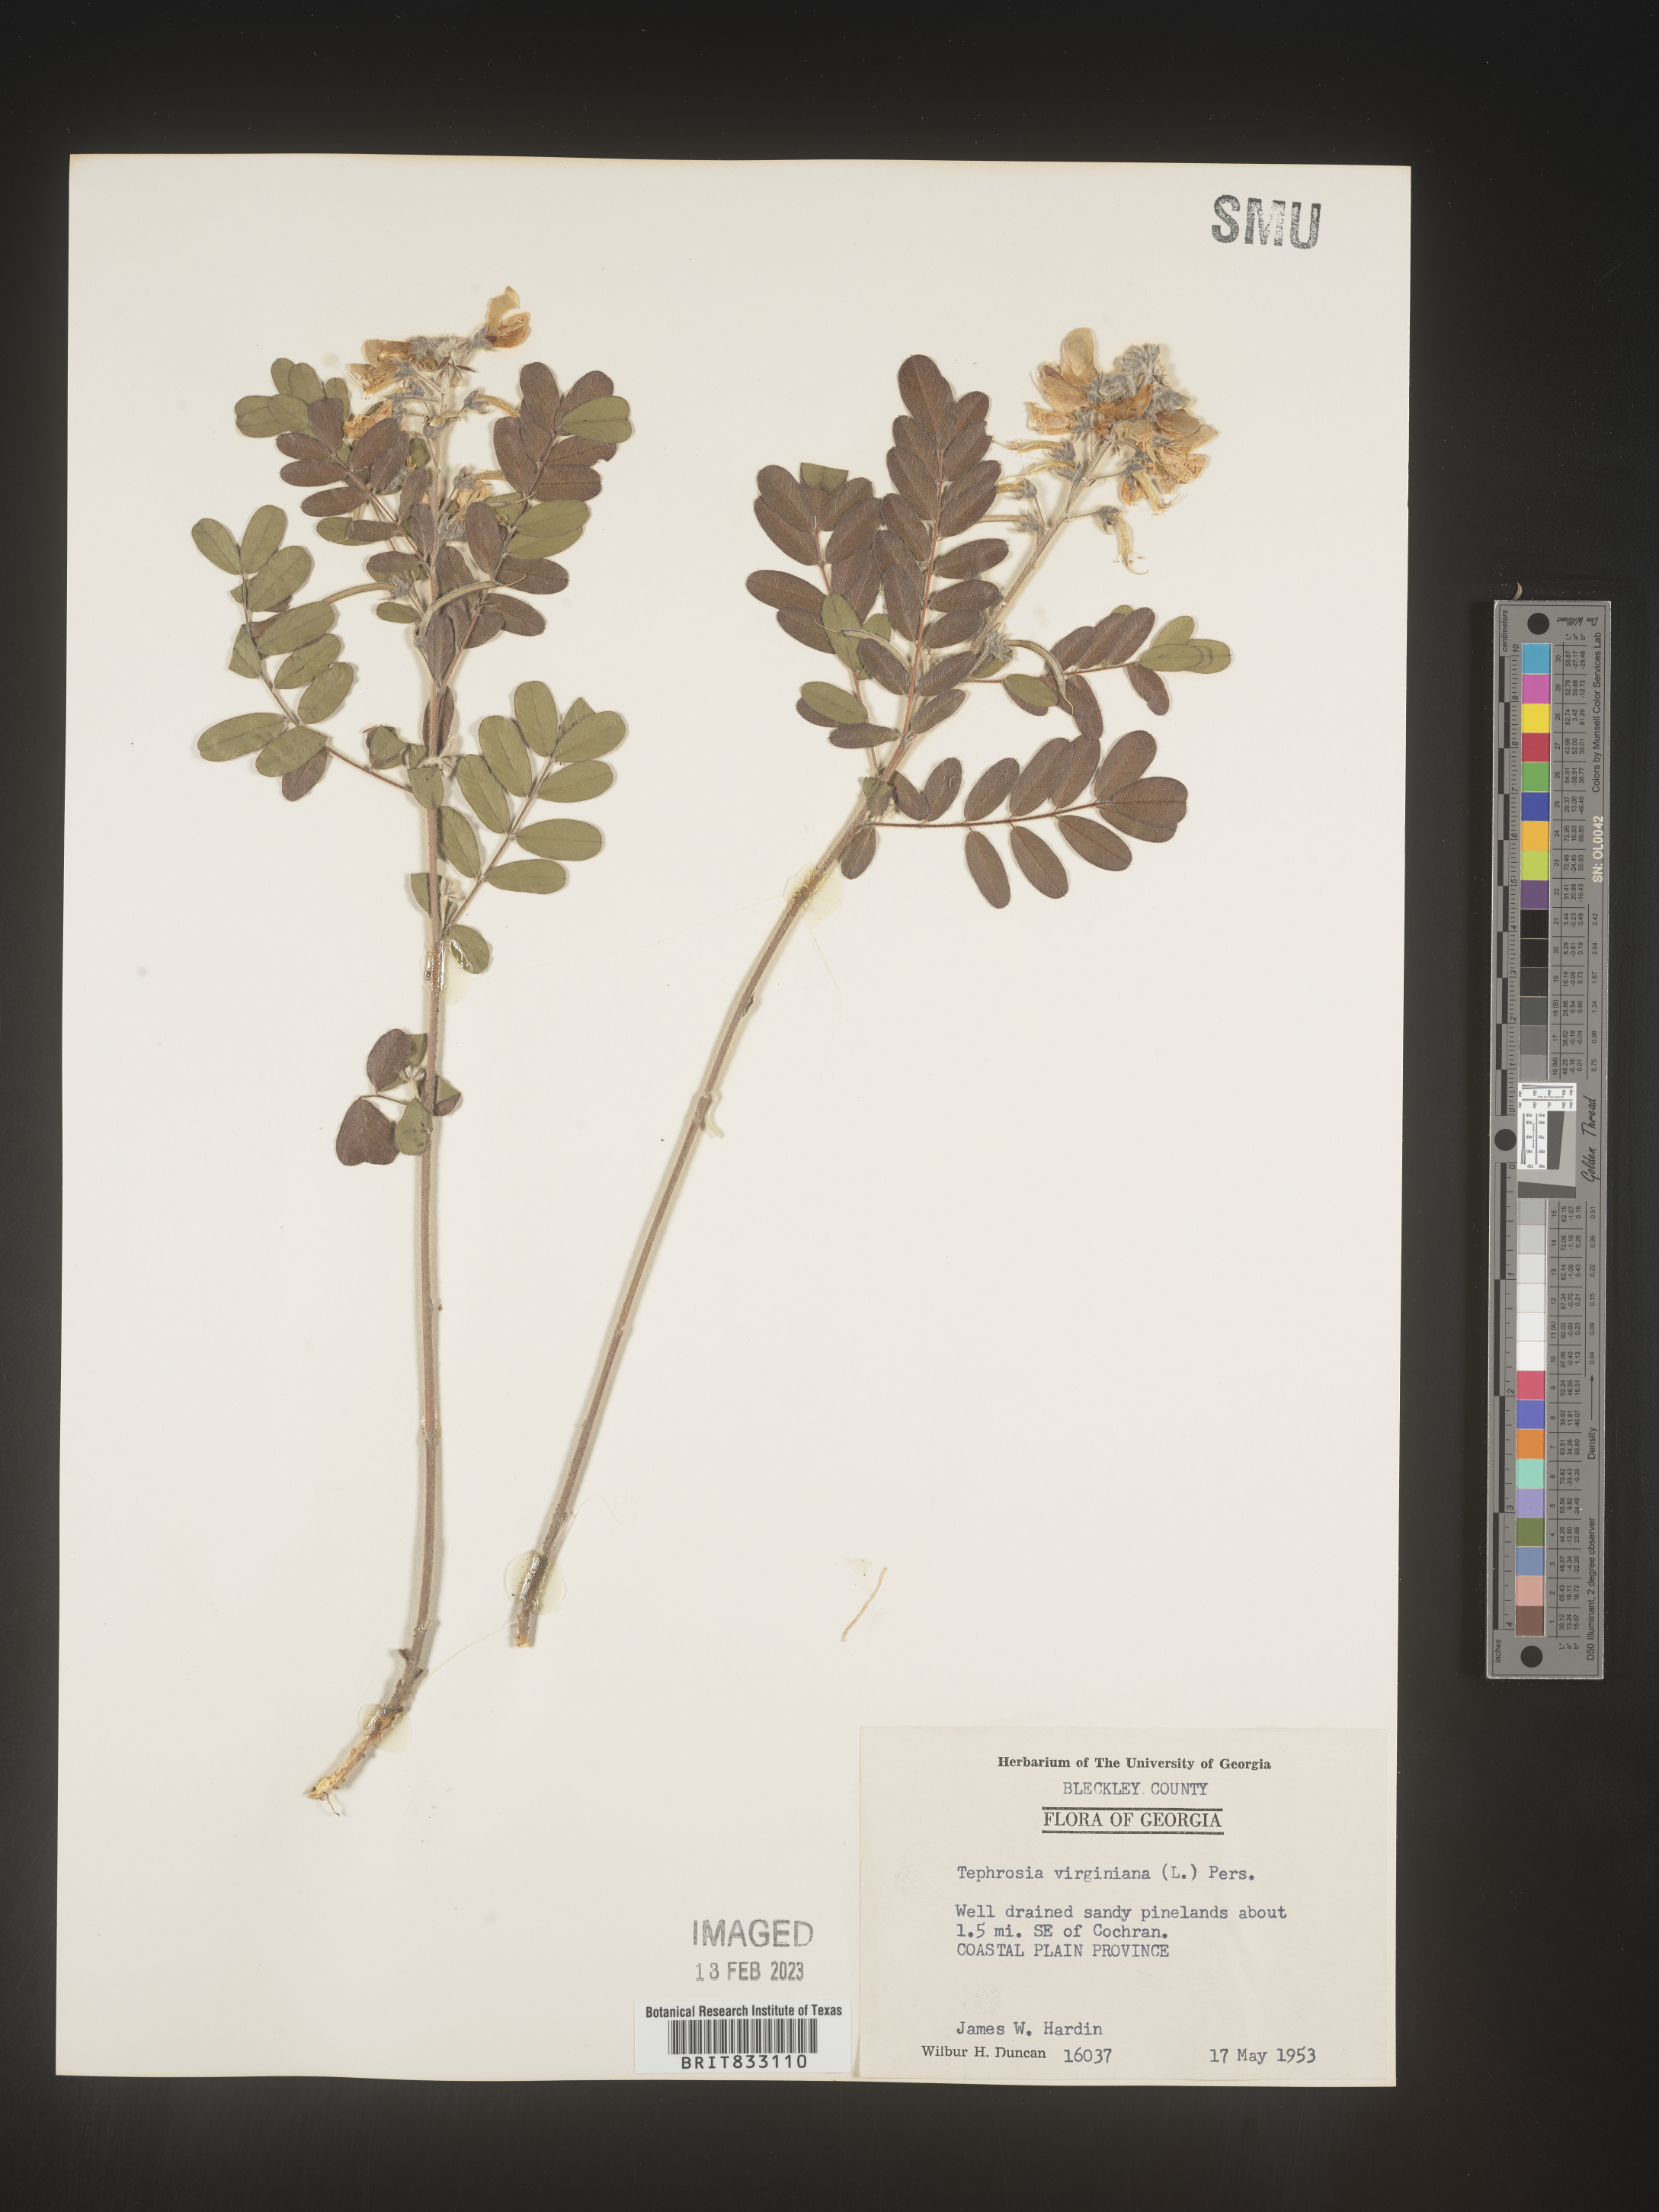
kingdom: Plantae
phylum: Tracheophyta
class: Magnoliopsida
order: Fabales
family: Fabaceae
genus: Tephrosia
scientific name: Tephrosia virginiana
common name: Rabbit-pea
